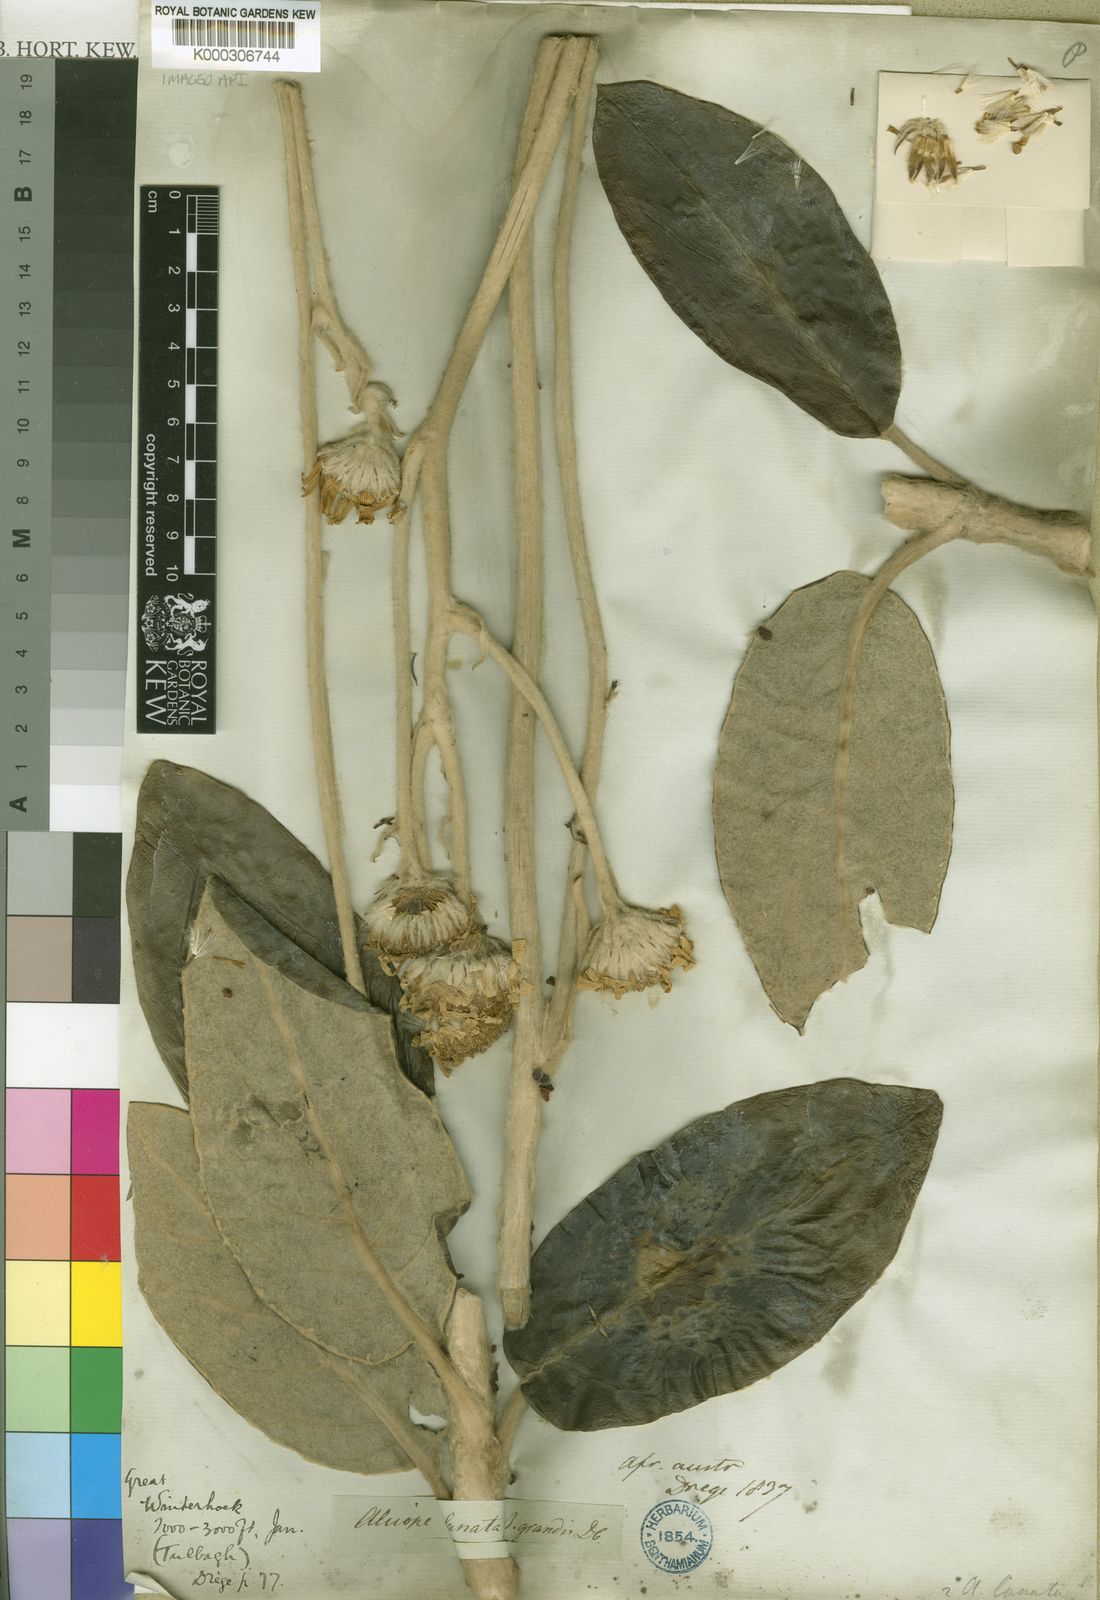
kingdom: Plantae
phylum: Tracheophyta
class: Magnoliopsida
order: Asterales
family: Asteraceae
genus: Capelio
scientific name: Capelio tomentosa
